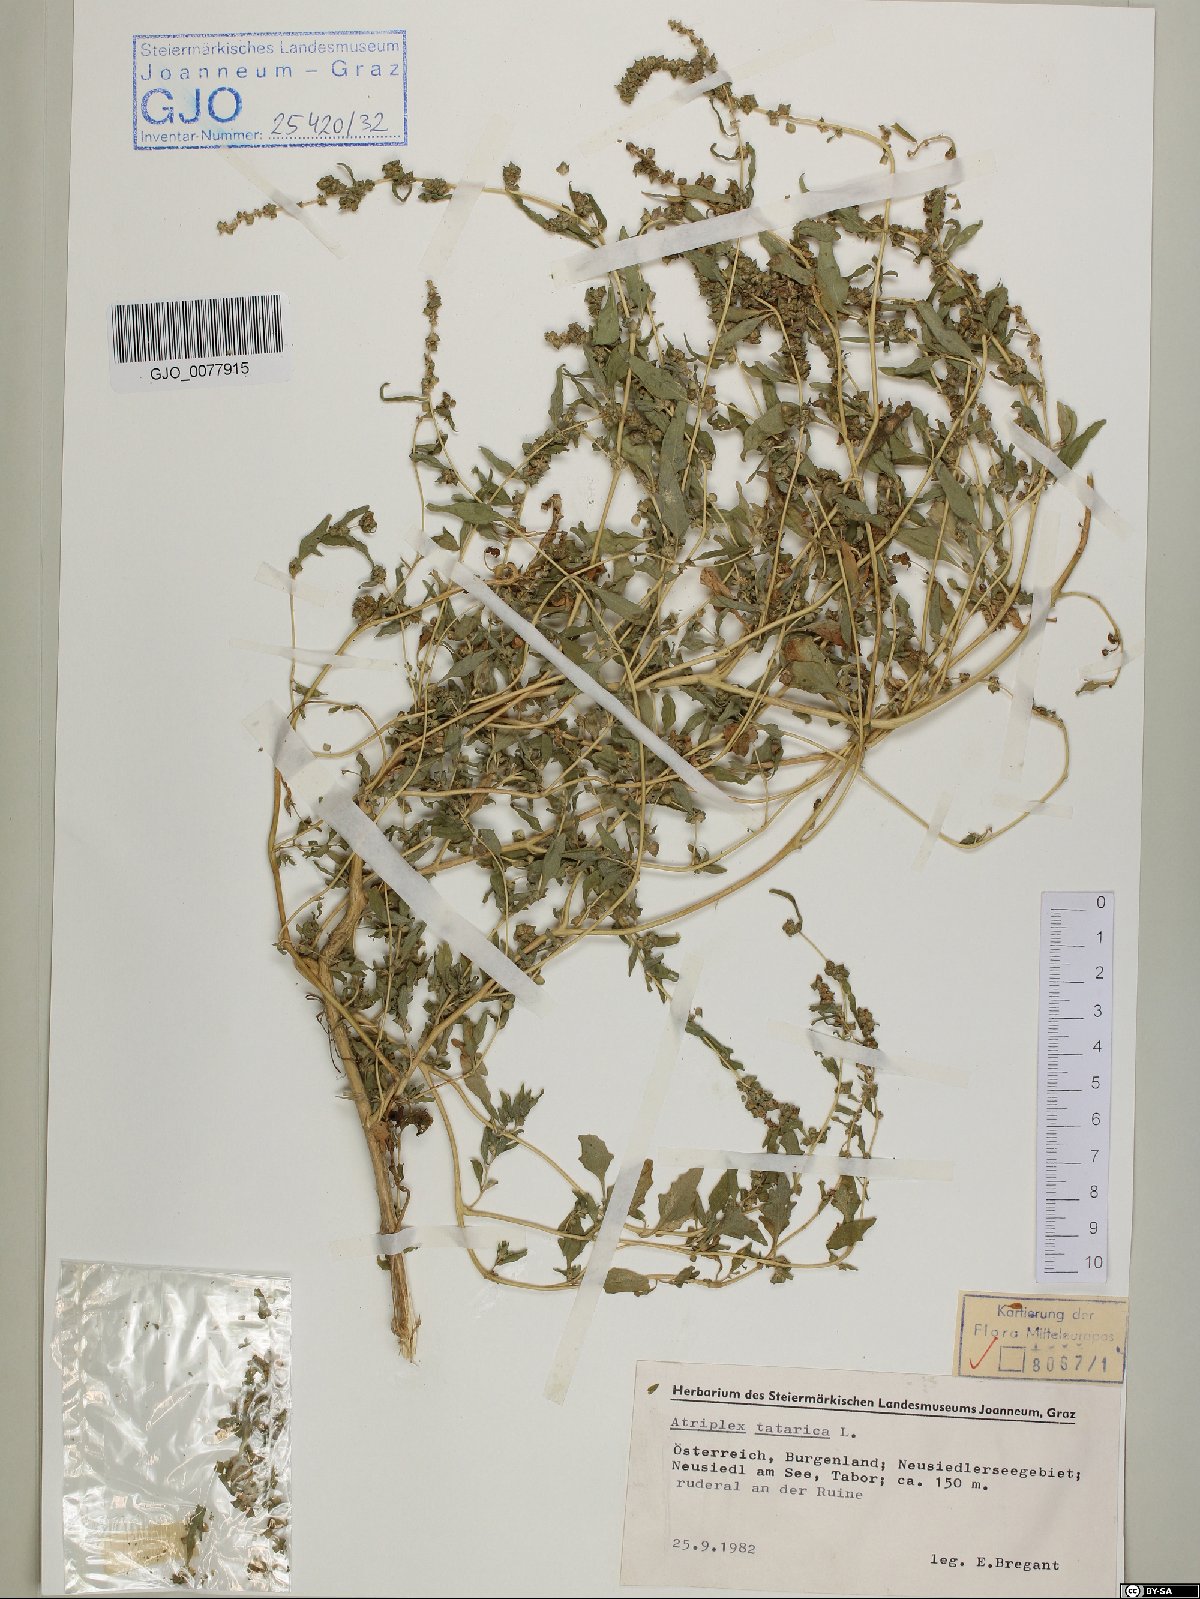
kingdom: Plantae
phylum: Tracheophyta
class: Magnoliopsida
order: Caryophyllales
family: Amaranthaceae
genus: Atriplex
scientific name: Atriplex tatarica
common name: Tatarian orache
